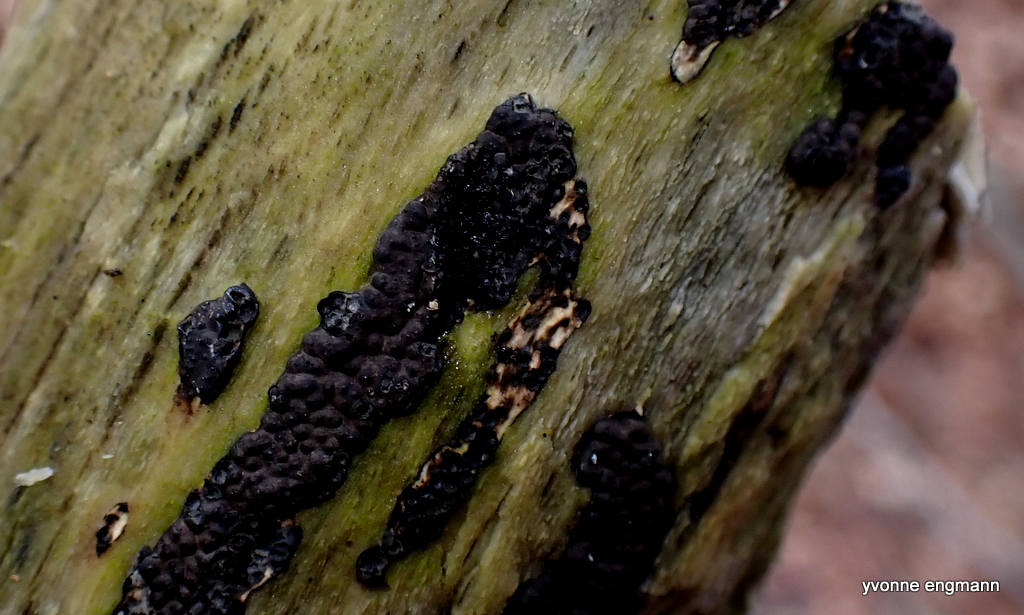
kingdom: Fungi
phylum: Ascomycota
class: Sordariomycetes
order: Xylariales
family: Xylariaceae
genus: Nemania
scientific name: Nemania
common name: kuldyne
